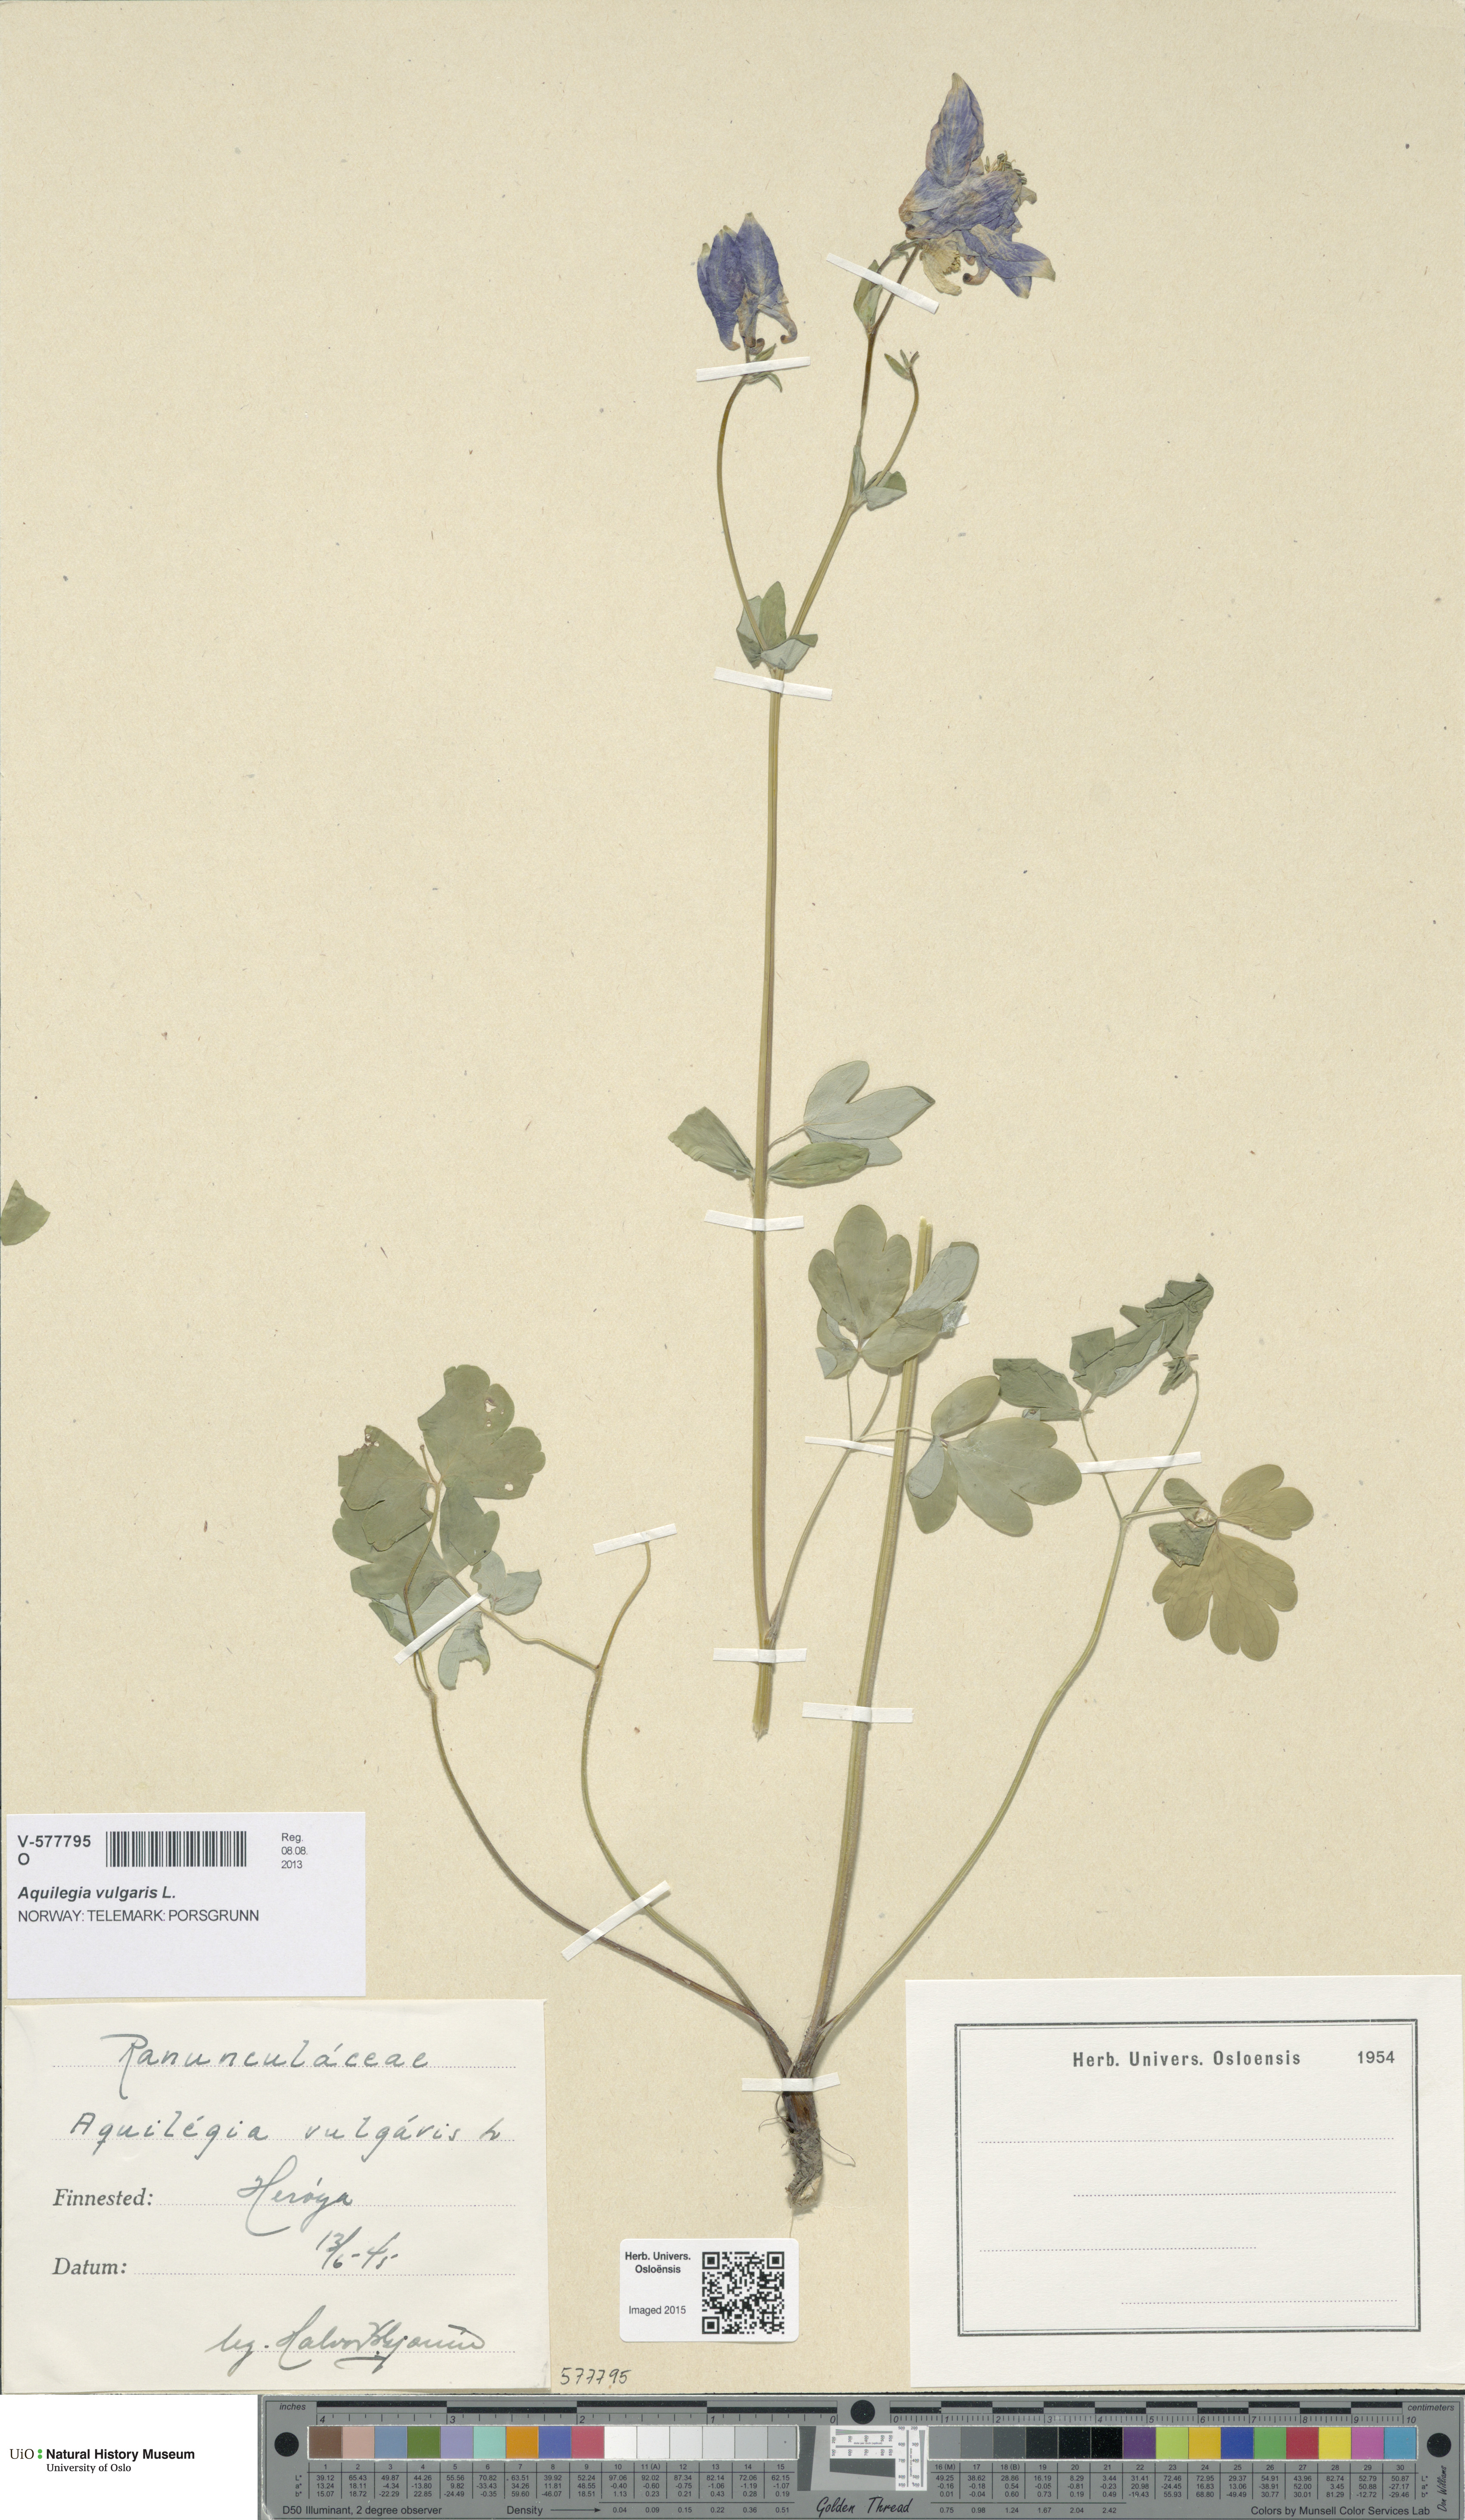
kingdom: Plantae
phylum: Tracheophyta
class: Magnoliopsida
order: Ranunculales
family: Ranunculaceae
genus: Aquilegia
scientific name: Aquilegia vulgaris
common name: Columbine
